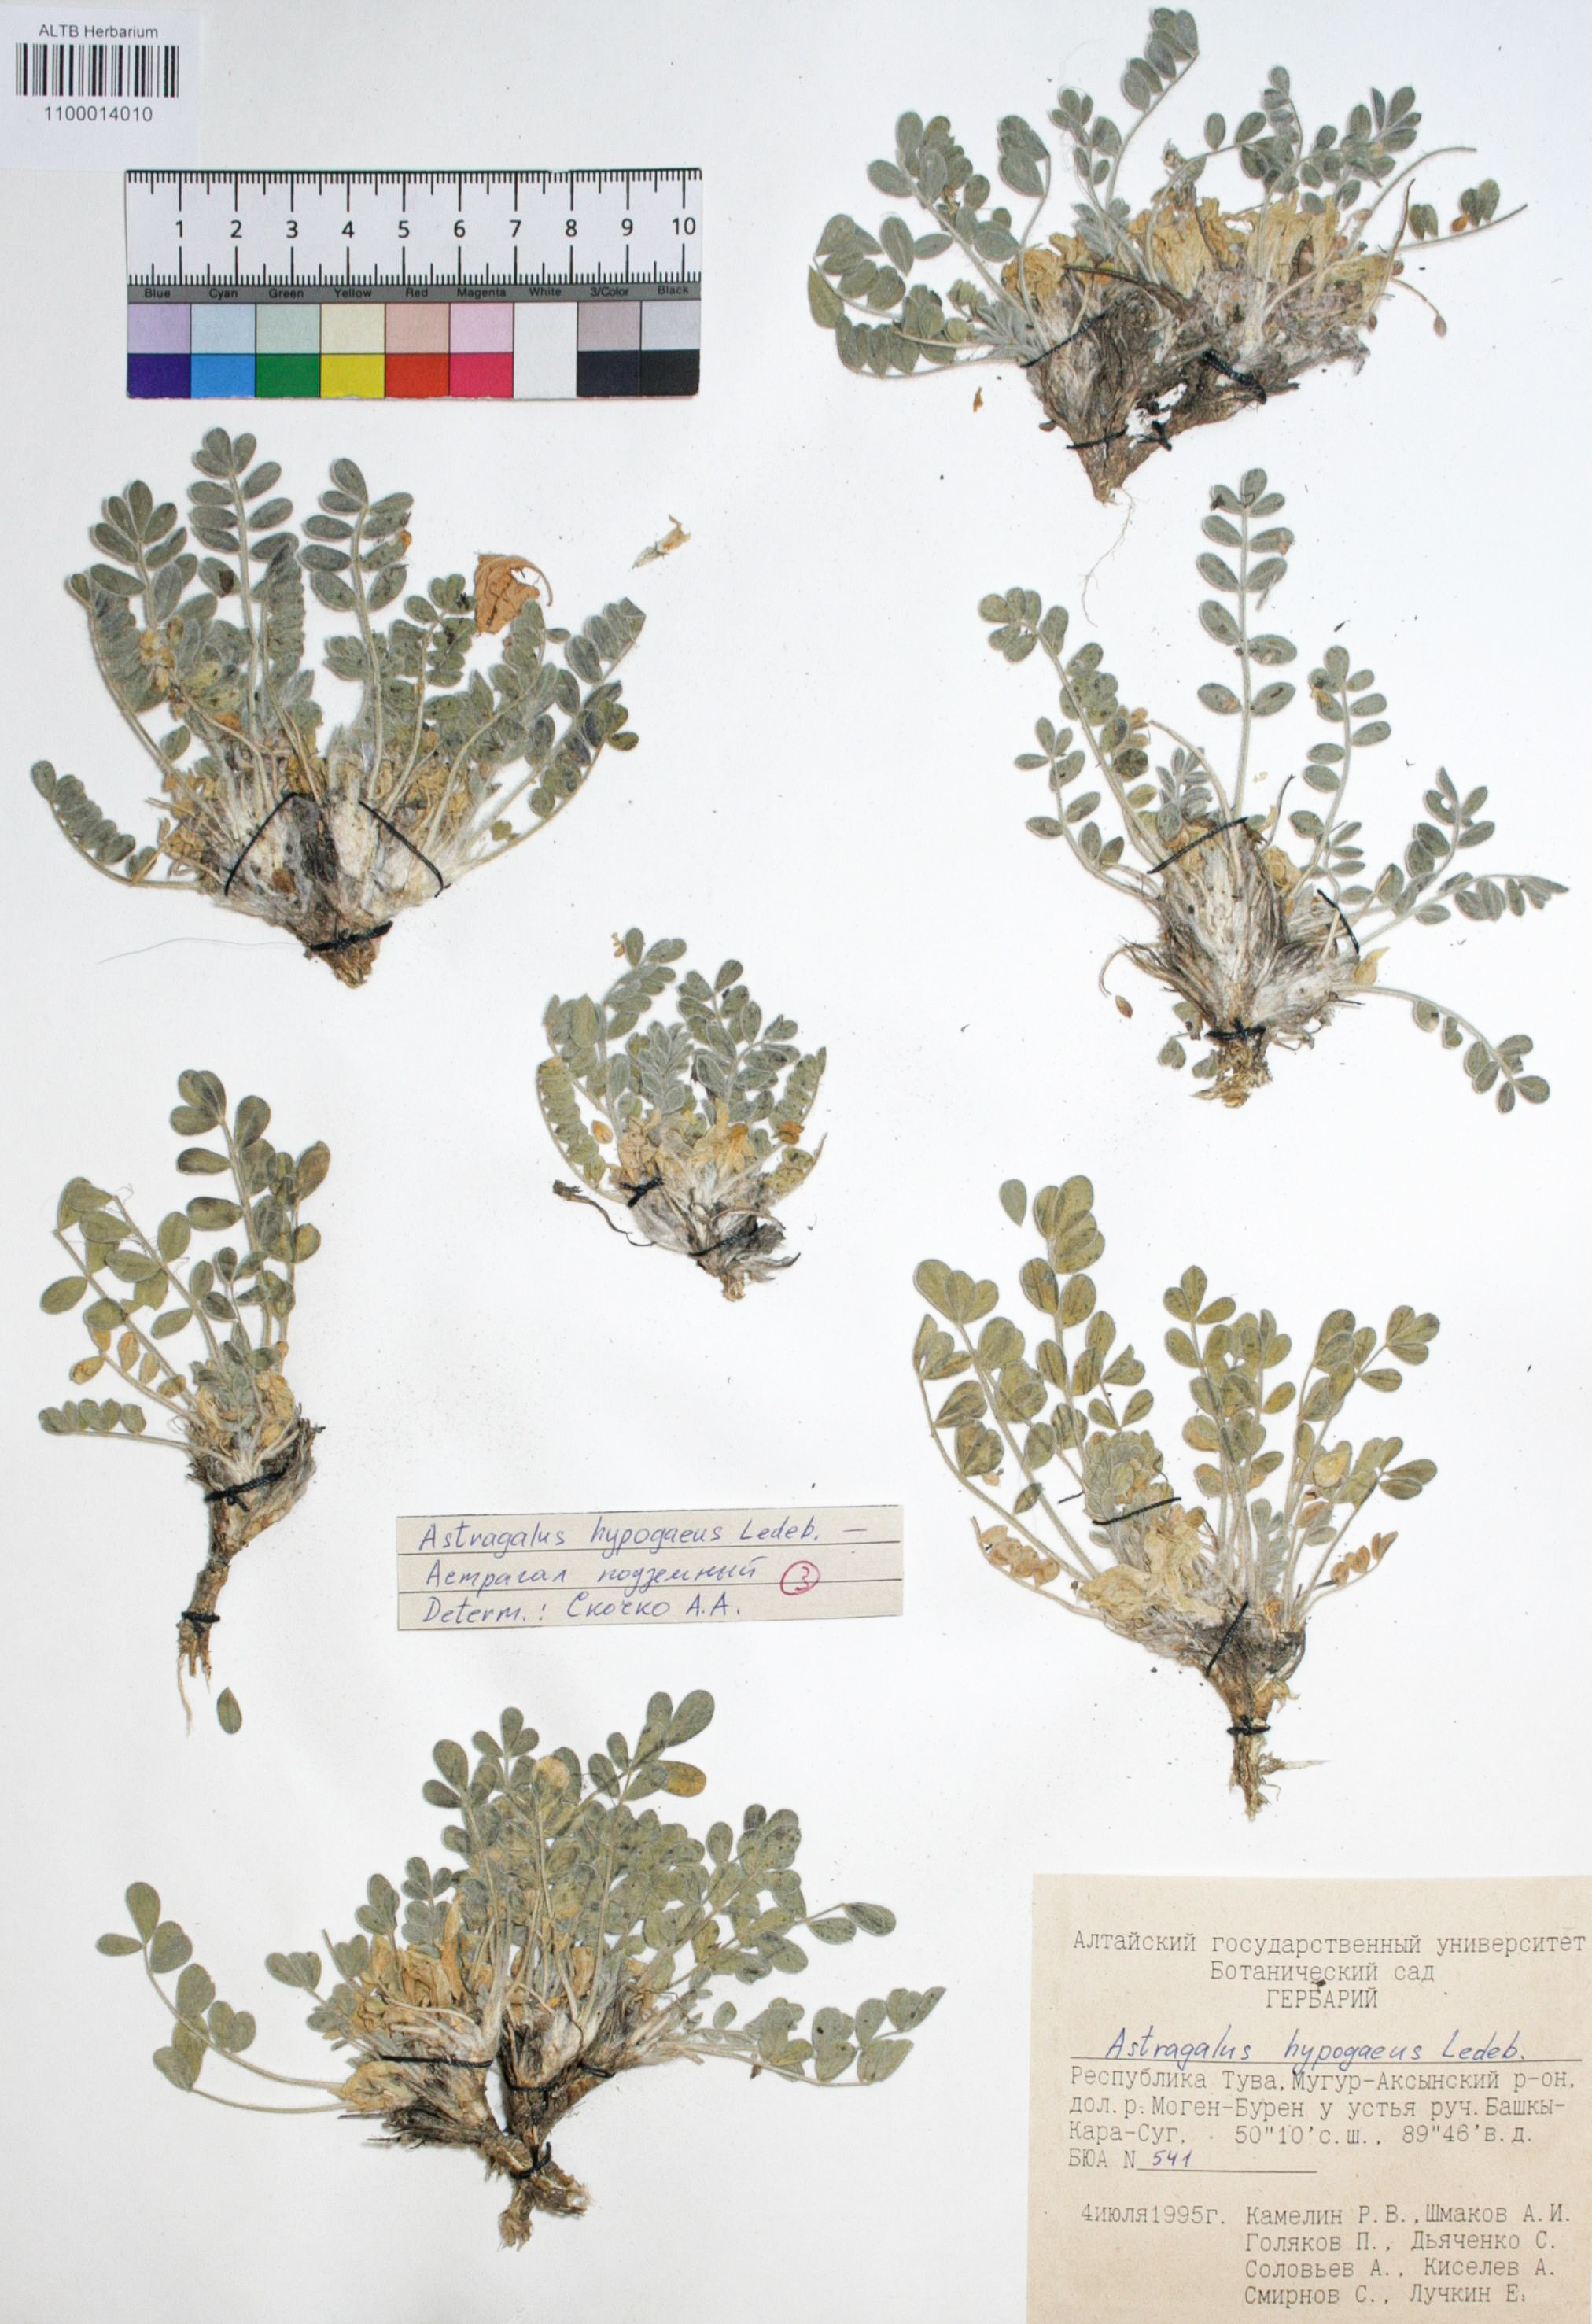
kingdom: Plantae
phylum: Tracheophyta
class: Magnoliopsida
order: Fabales
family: Fabaceae
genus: Astragalus
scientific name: Astragalus hypogaeus
